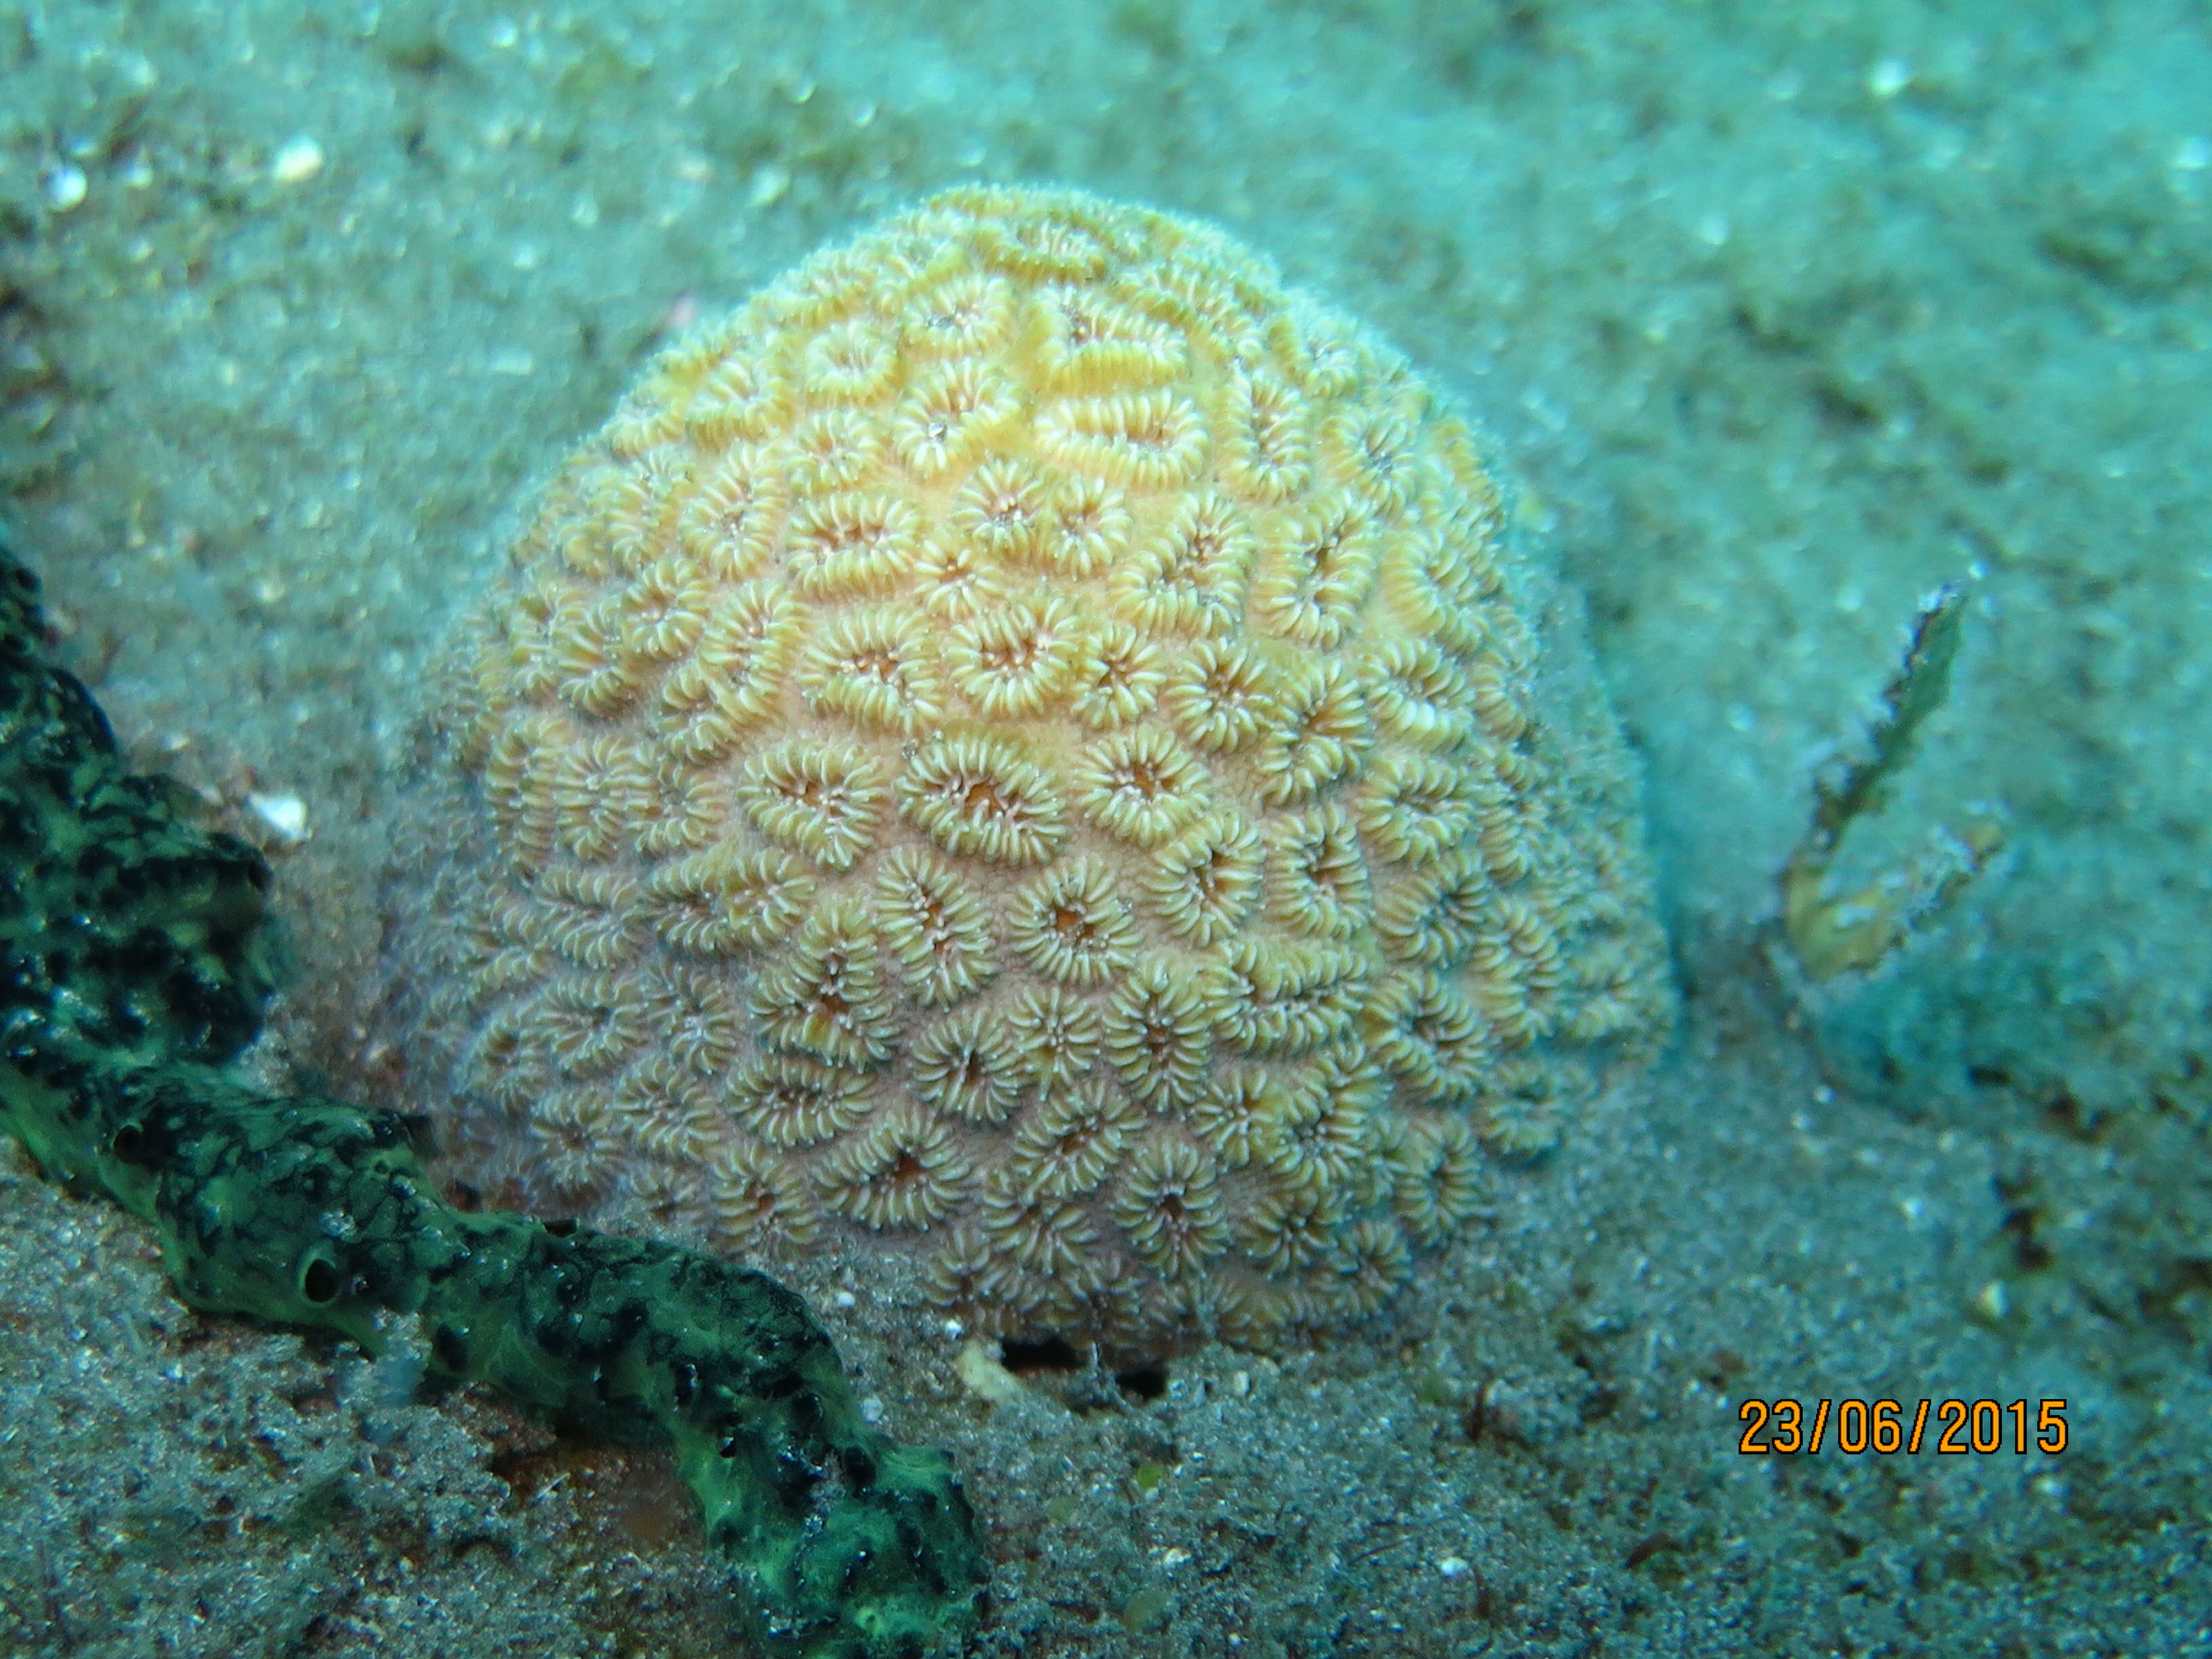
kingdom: Animalia
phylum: Cnidaria
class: Anthozoa
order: Scleractinia
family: Meandrinidae
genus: Dichocoenia
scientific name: Dichocoenia stokesii
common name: Pineapple coral
